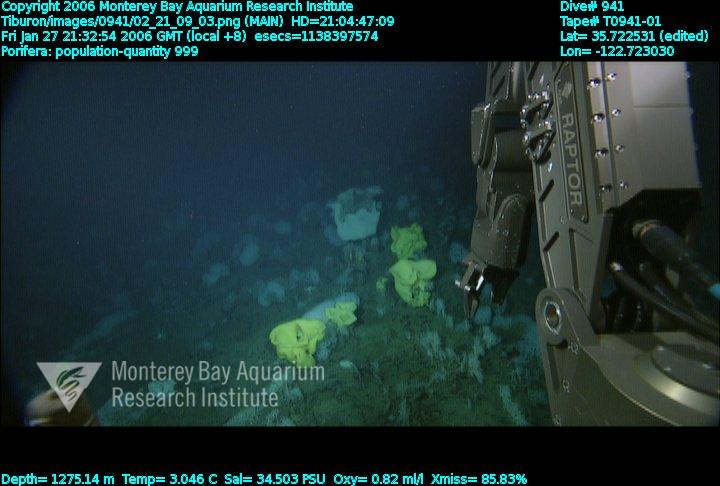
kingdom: Animalia
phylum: Porifera
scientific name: Porifera
